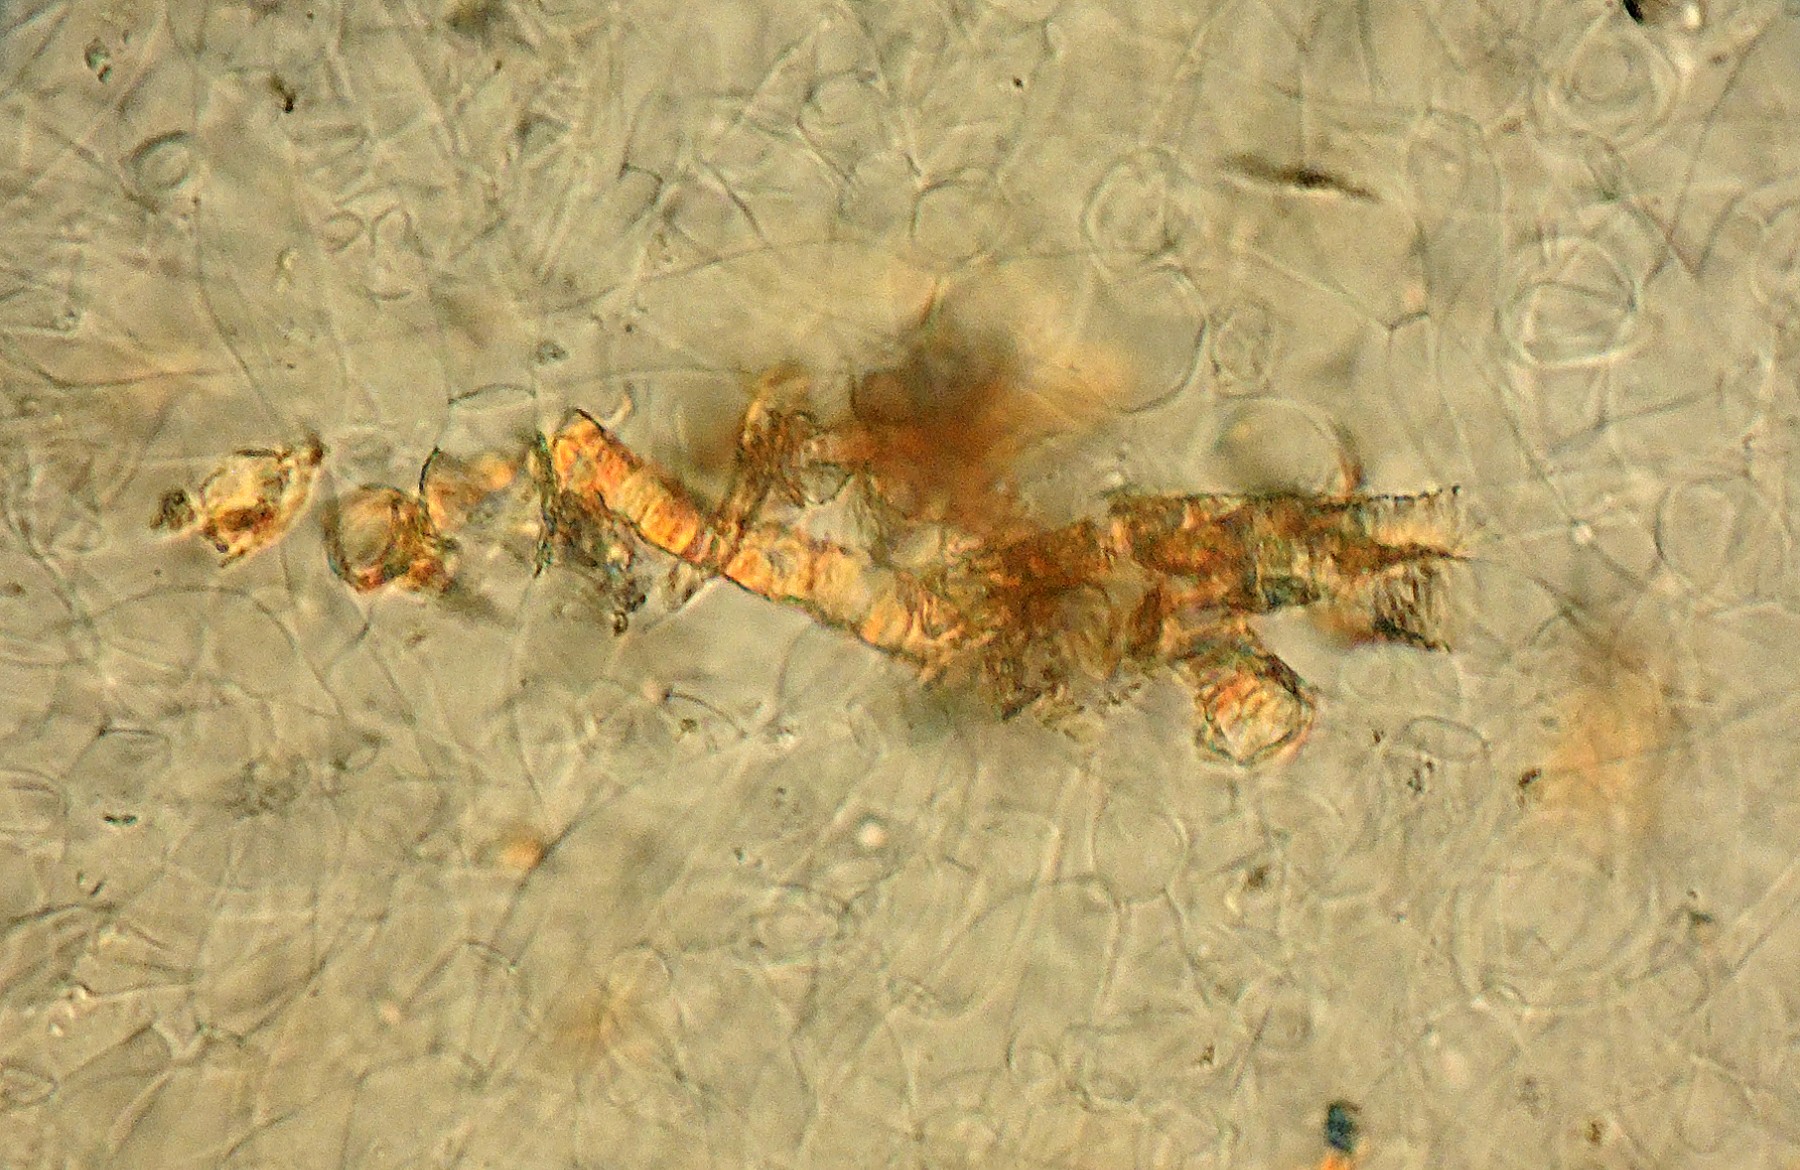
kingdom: Fungi
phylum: Ascomycota
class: Pezizomycetes
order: Pezizales
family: Otideaceae
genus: Otidea
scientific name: Otidea bufonia
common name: brun ørebæger
